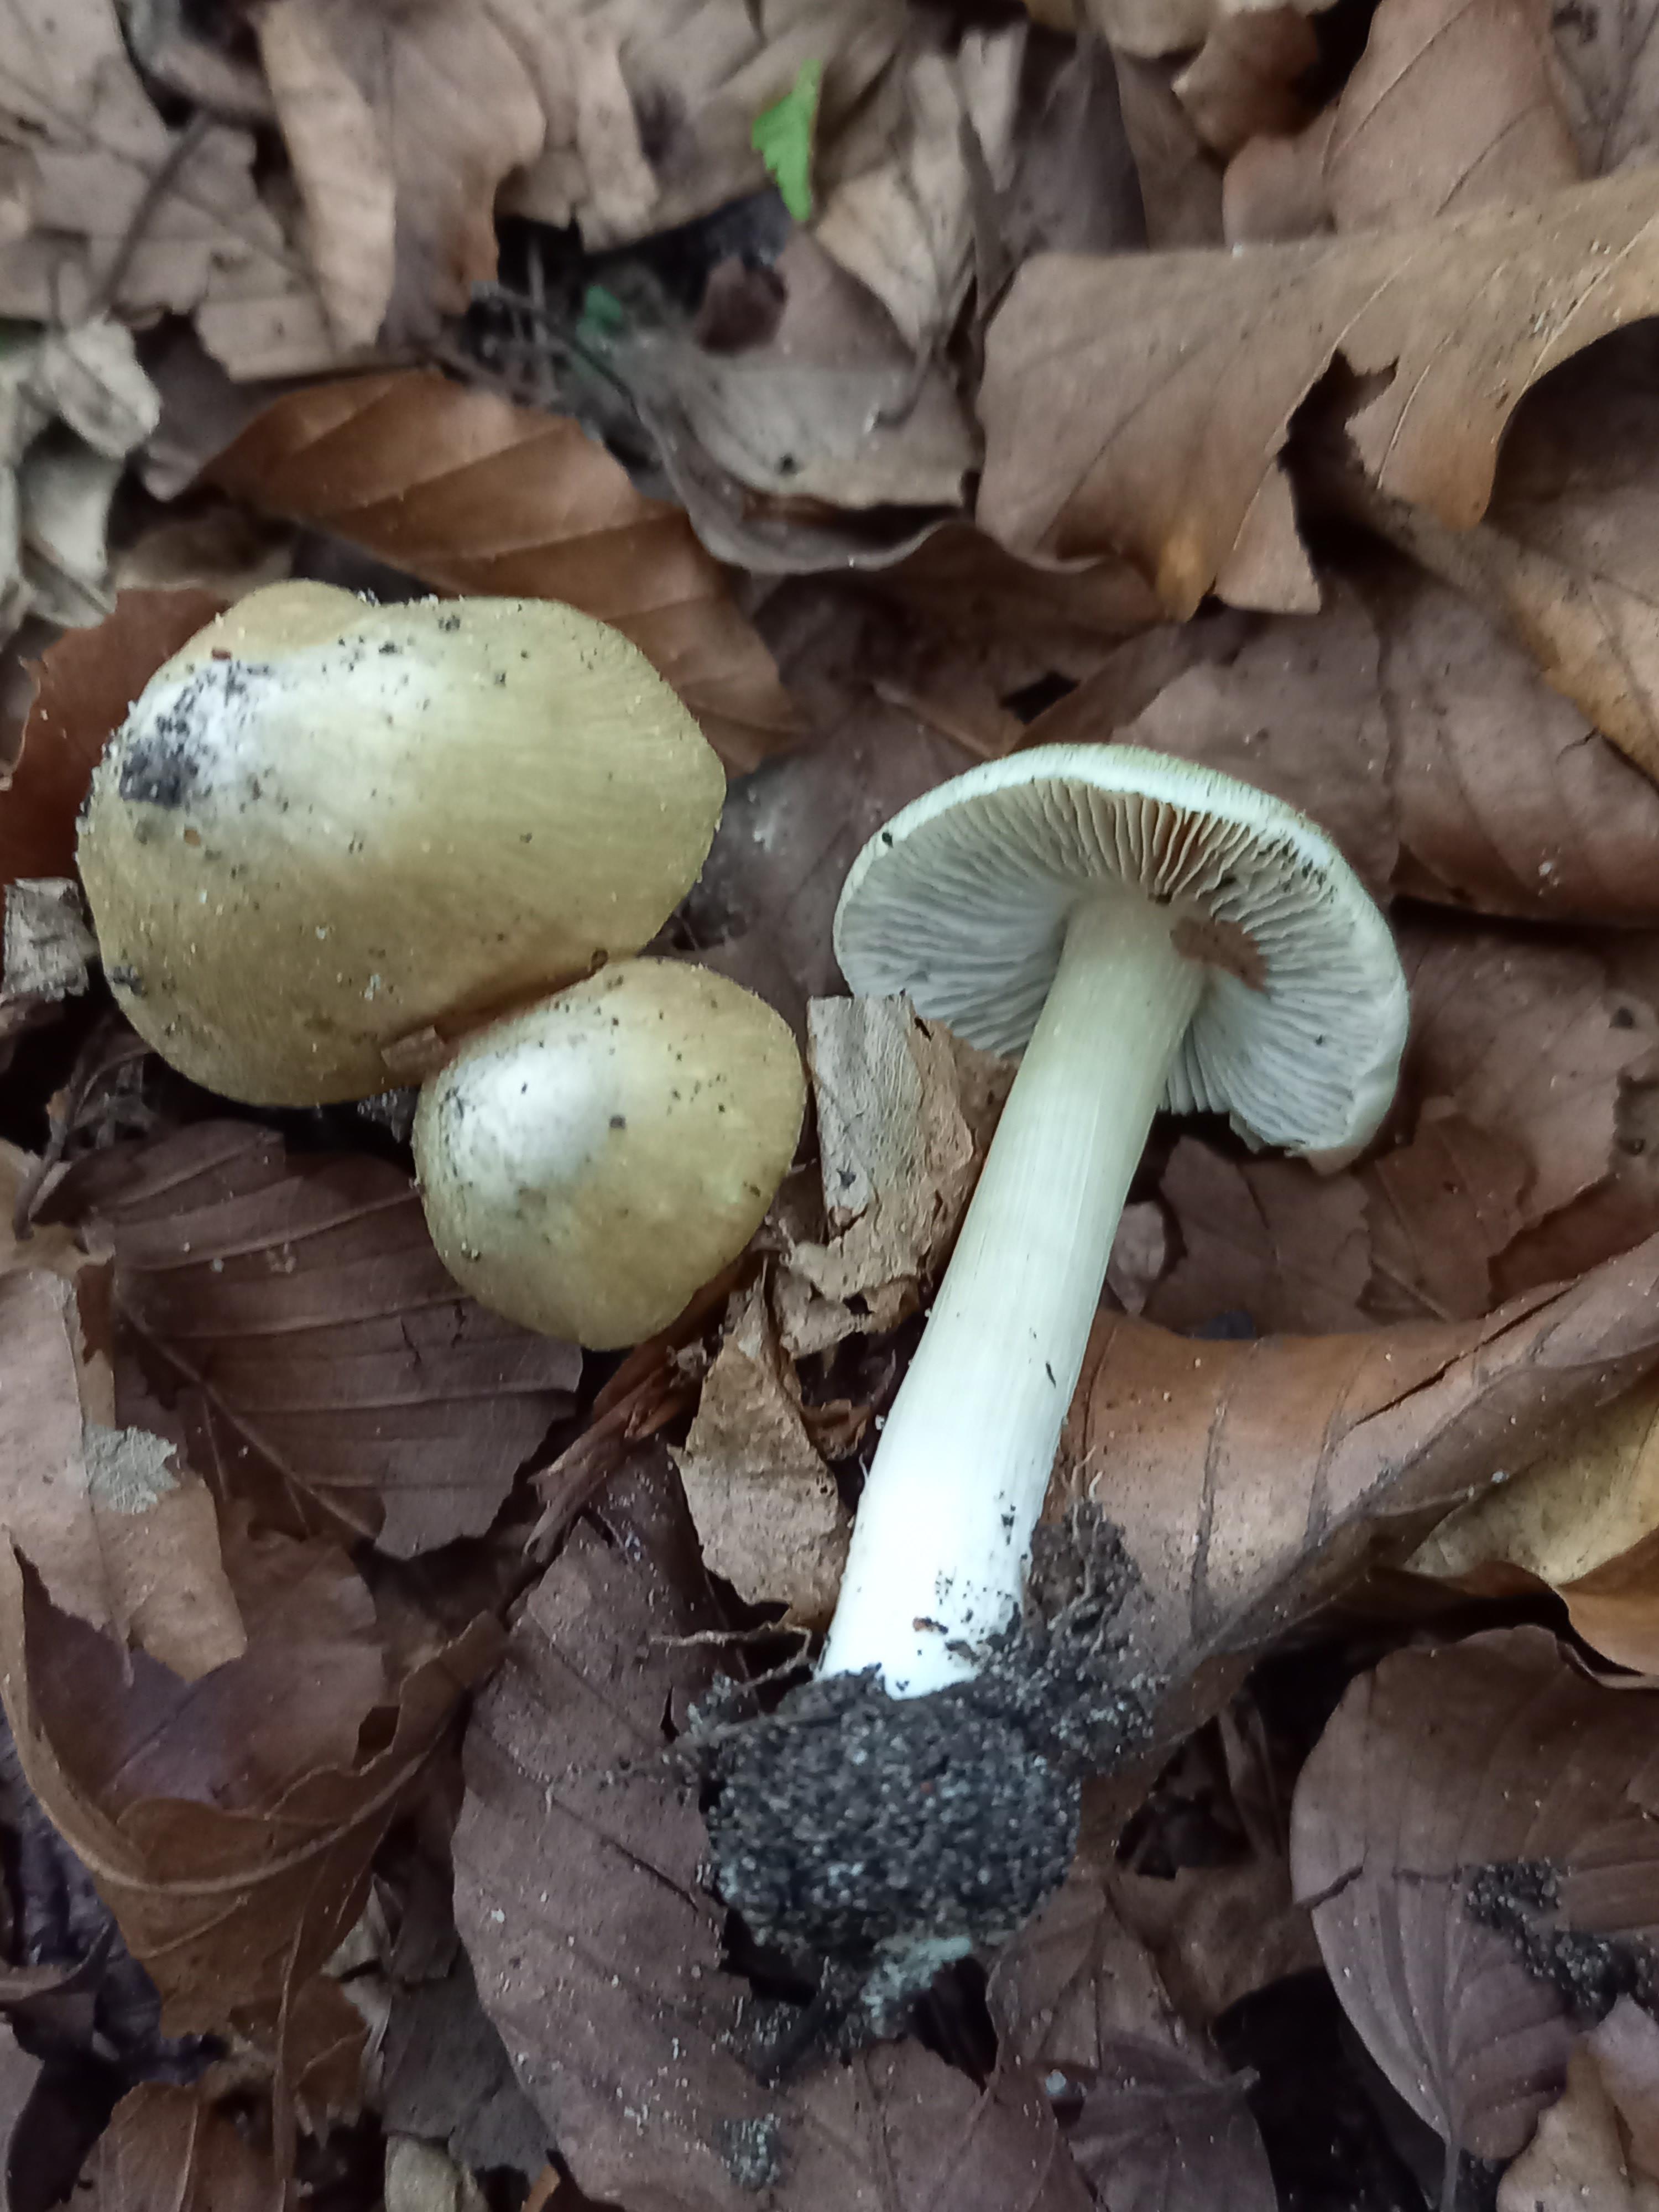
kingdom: Fungi
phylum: Basidiomycota
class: Agaricomycetes
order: Agaricales
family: Inocybaceae
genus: Pseudosperma
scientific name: Pseudosperma
